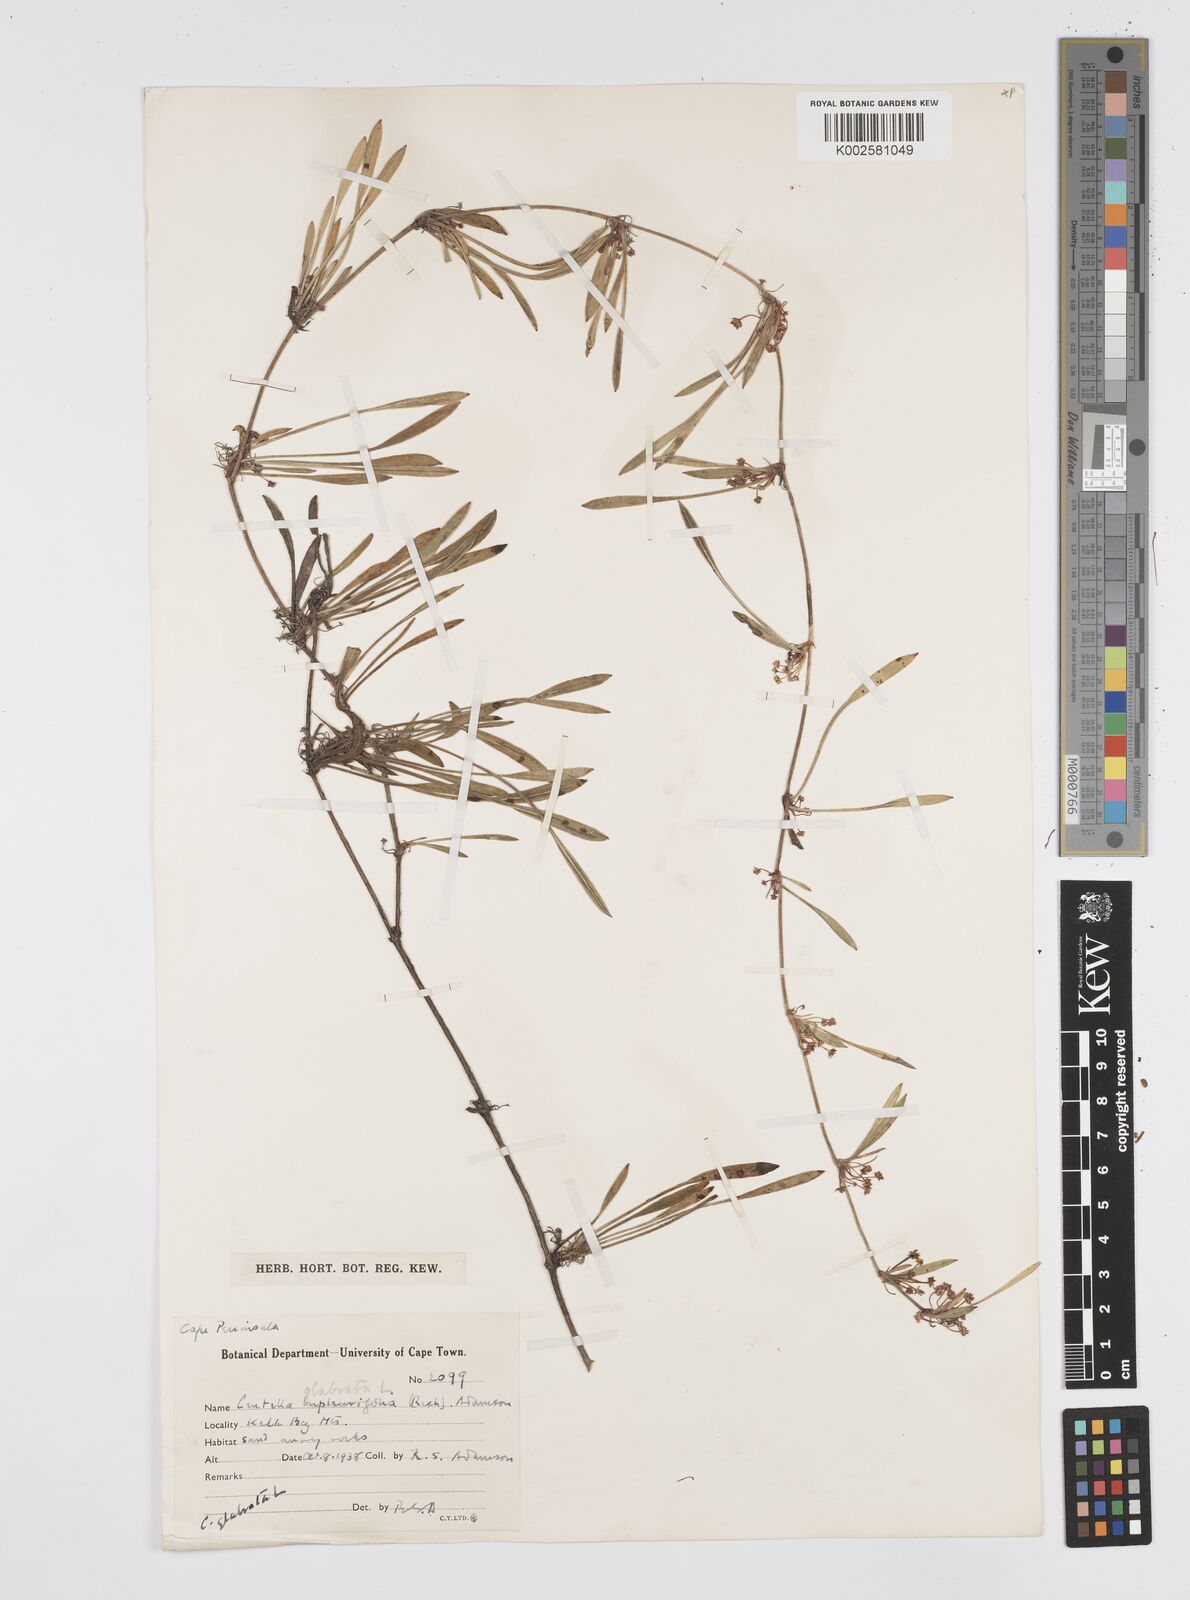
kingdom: Plantae
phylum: Tracheophyta
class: Magnoliopsida
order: Apiales
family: Apiaceae
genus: Centella
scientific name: Centella glabrata
